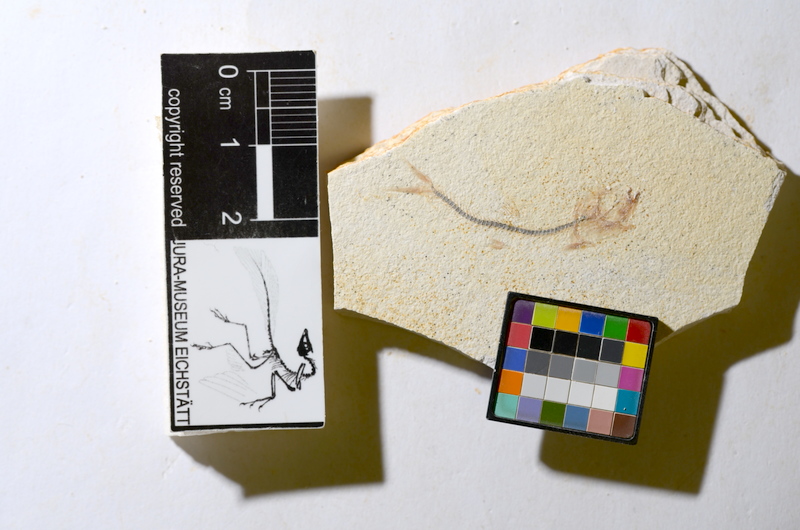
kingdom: Animalia
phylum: Chordata
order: Salmoniformes
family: Orthogonikleithridae
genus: Orthogonikleithrus
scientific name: Orthogonikleithrus hoelli
